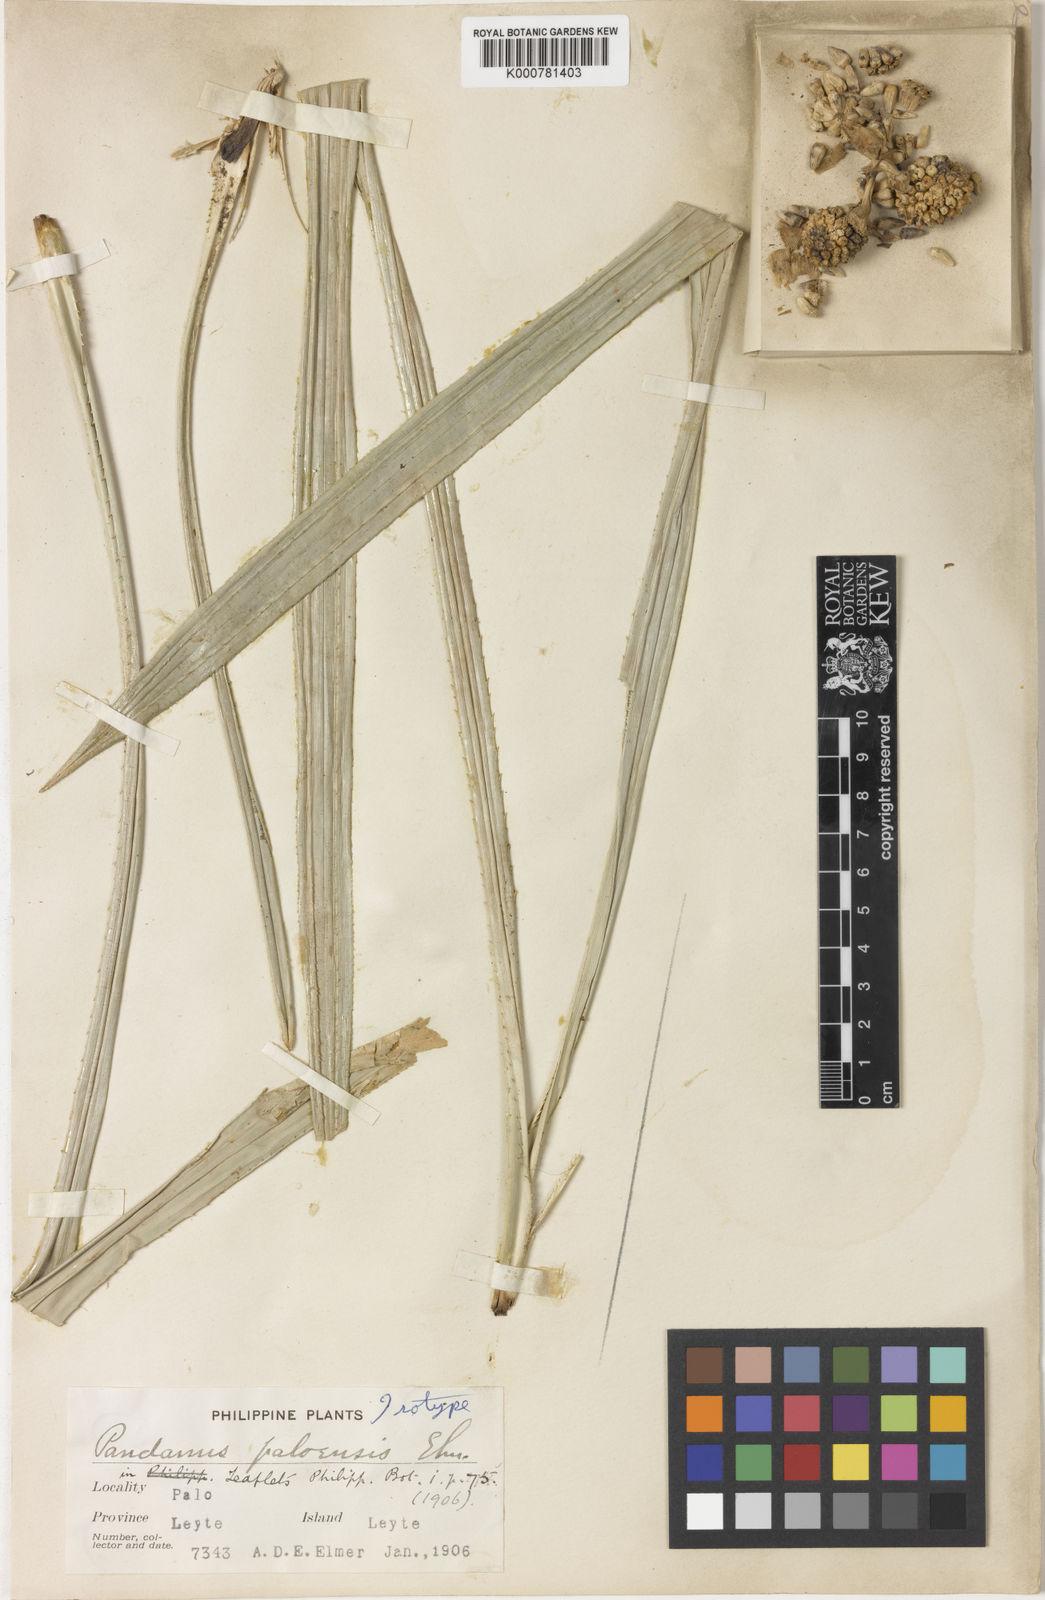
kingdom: Plantae
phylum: Tracheophyta
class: Liliopsida
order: Pandanales
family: Pandanaceae
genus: Pandanus
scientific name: Pandanus paloensis
